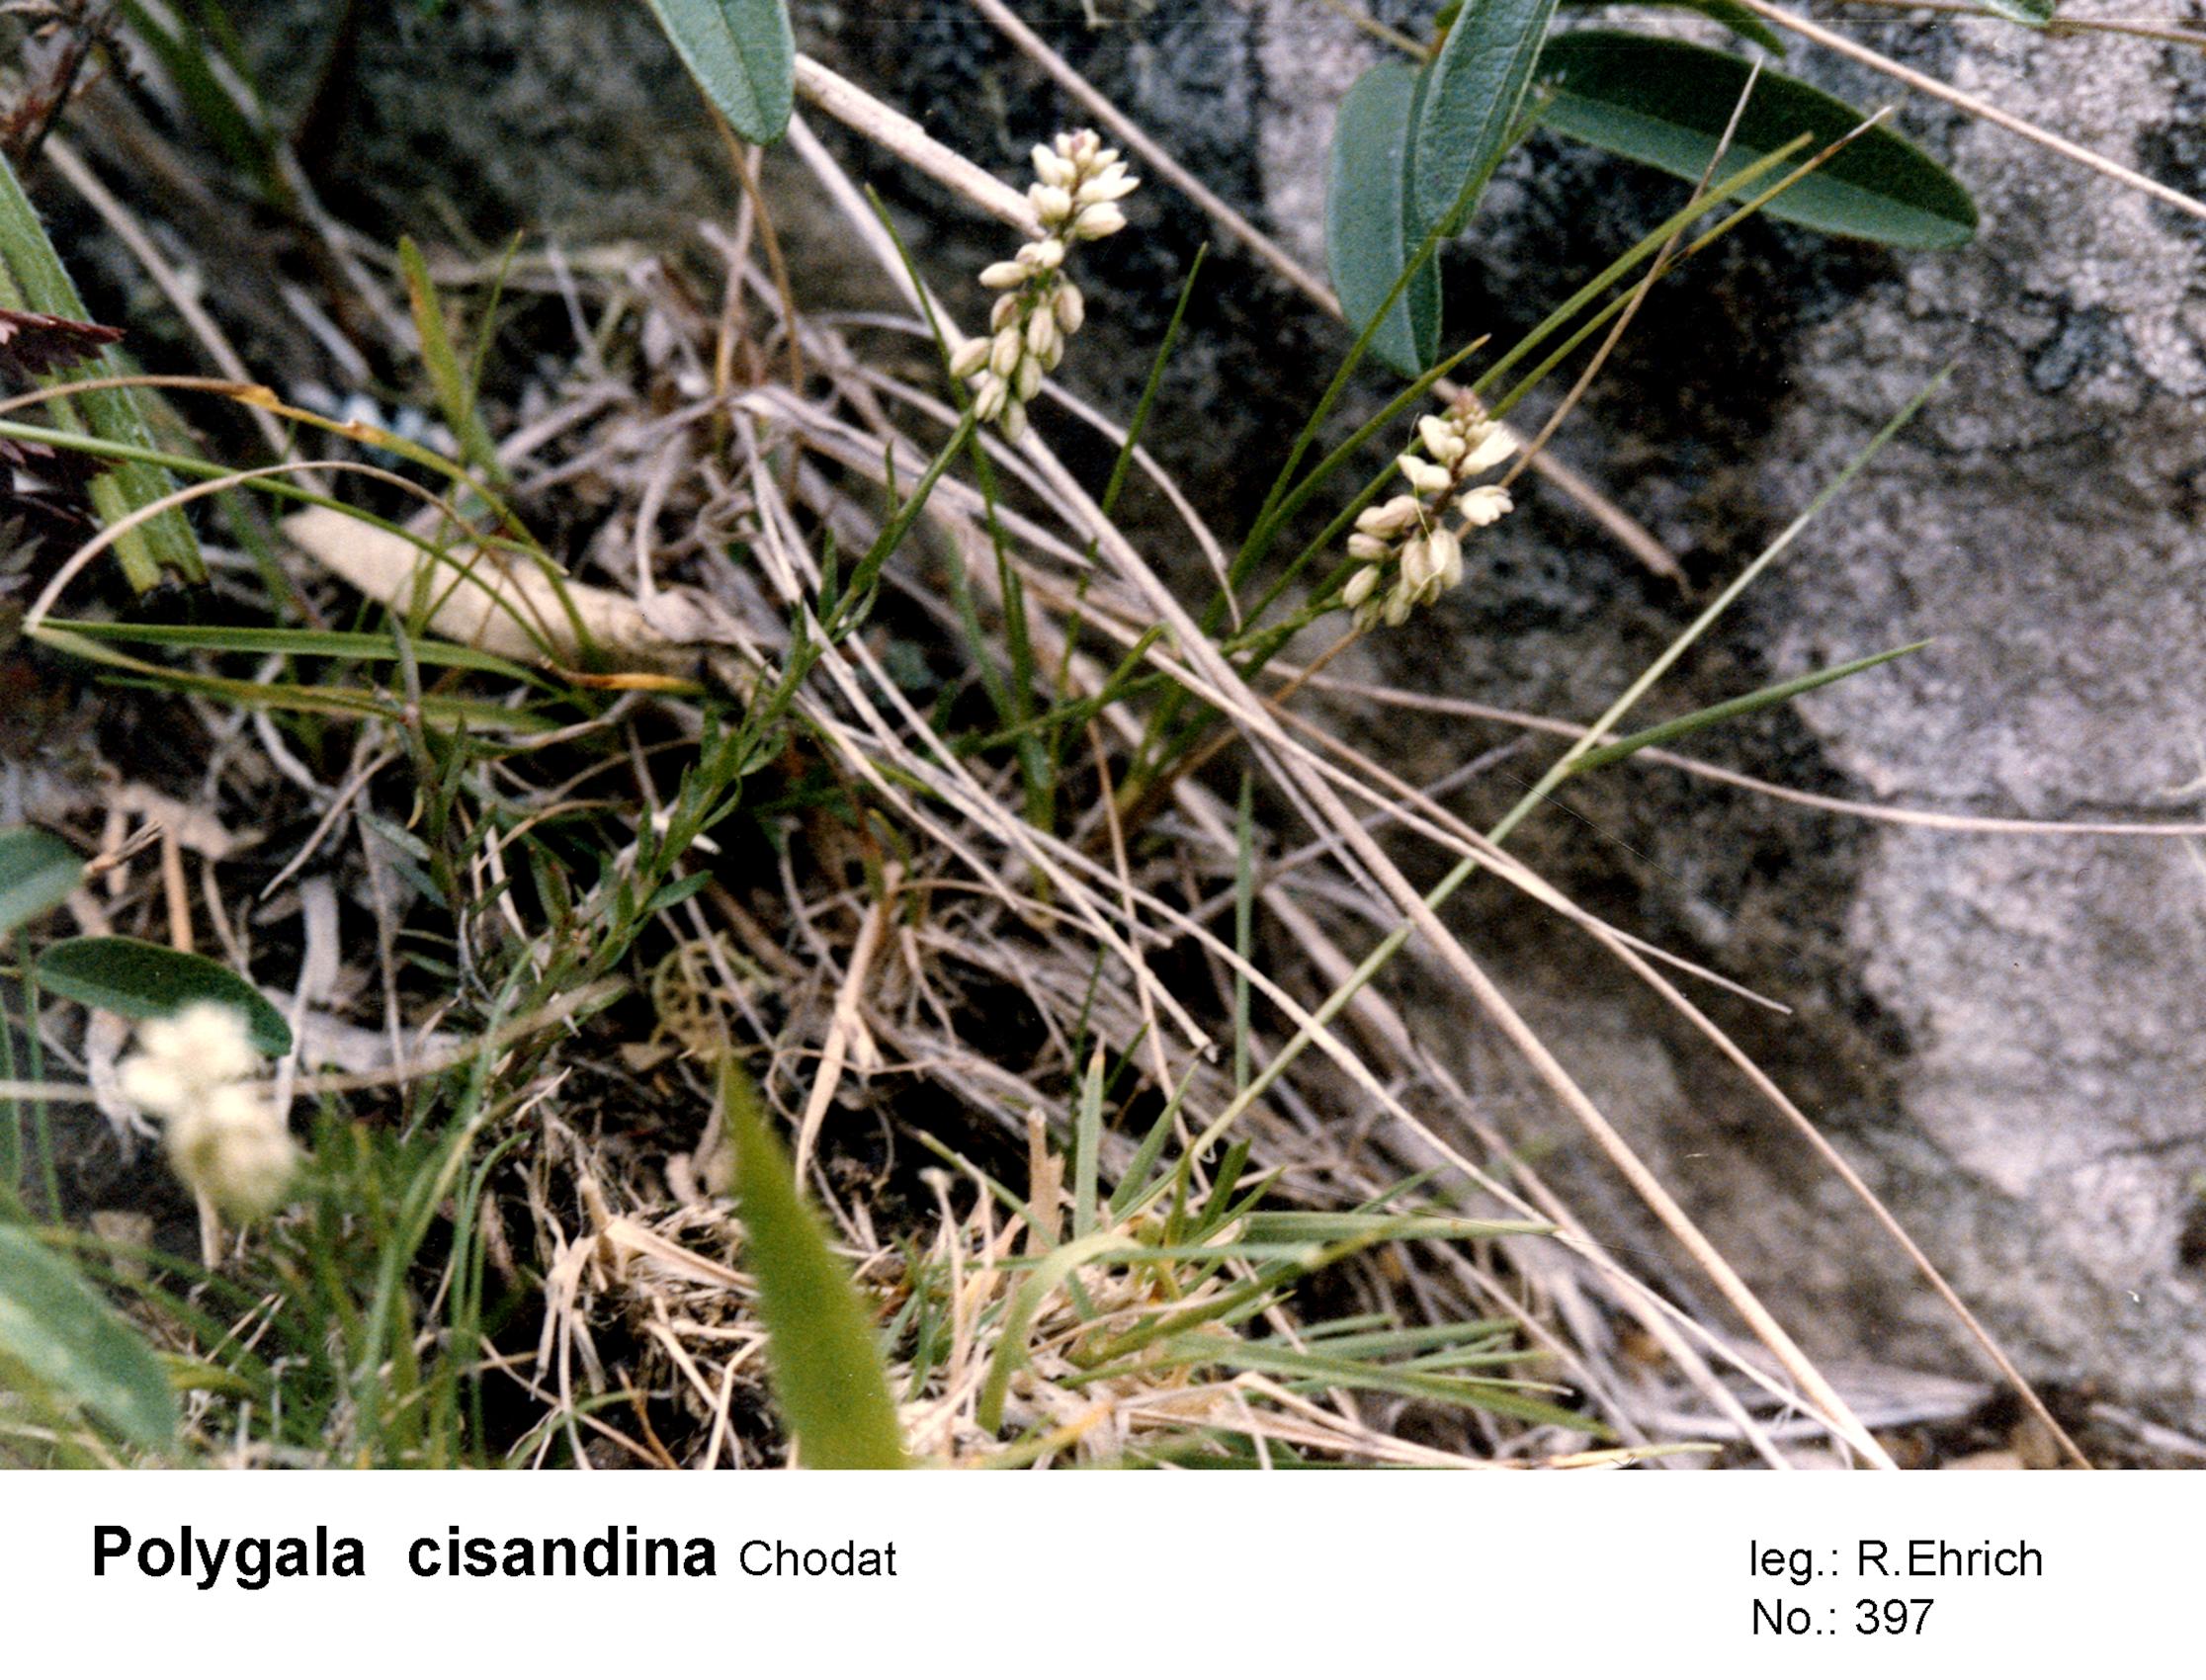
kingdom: Plantae
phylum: Tracheophyta
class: Magnoliopsida
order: Fabales
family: Polygalaceae
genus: Polygala
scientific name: Polygala cisandina
